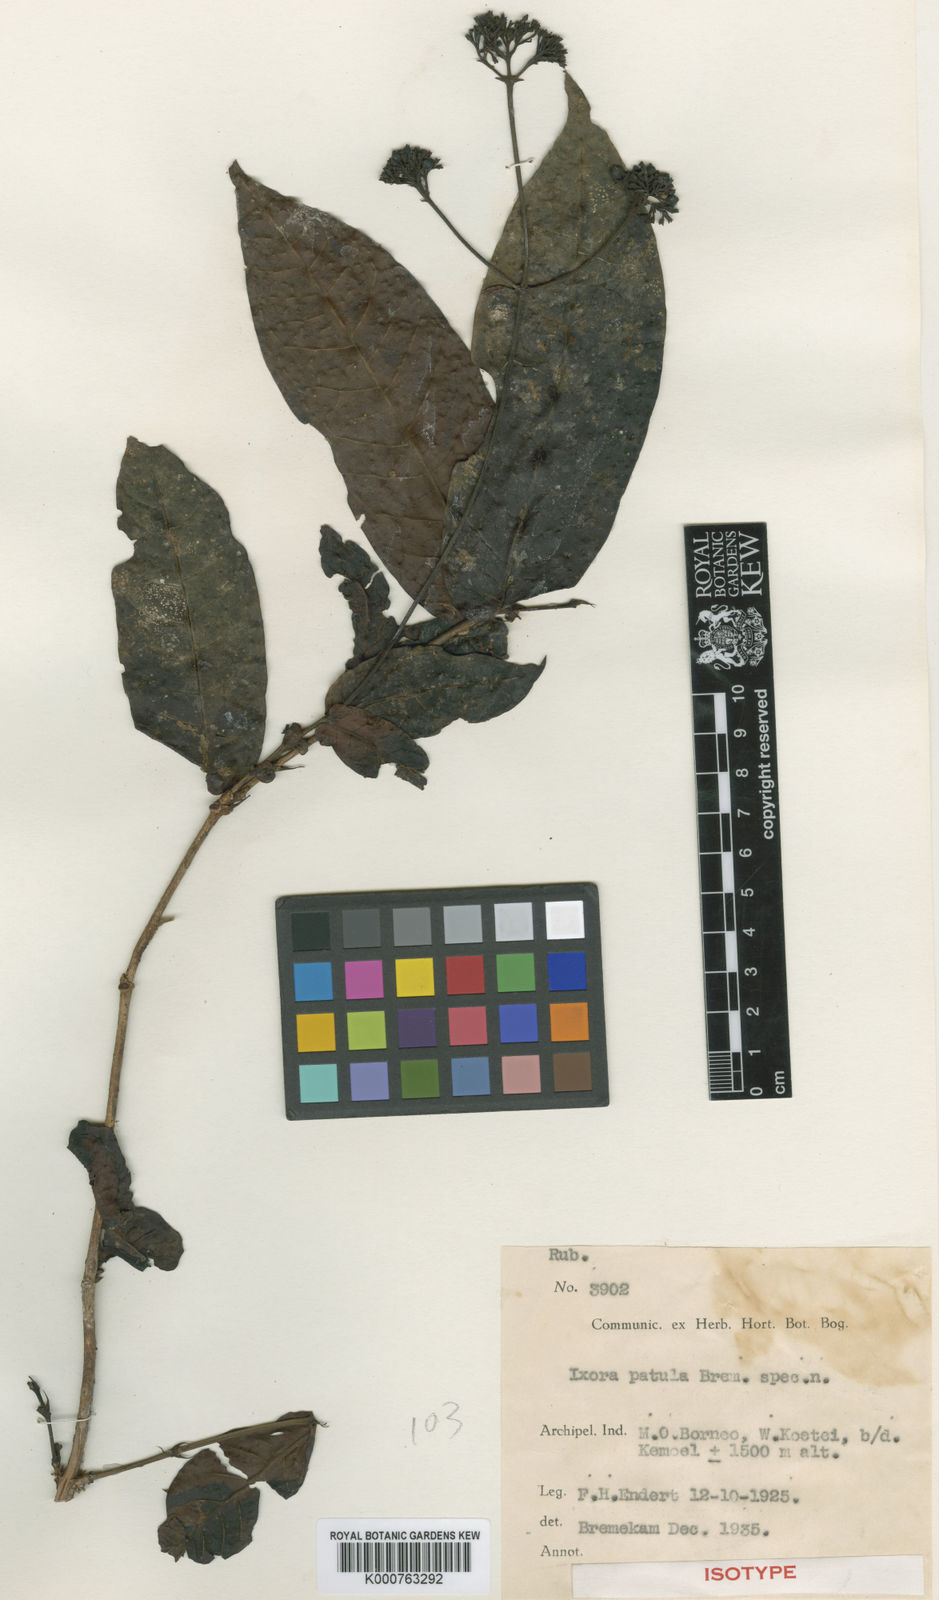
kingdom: Plantae
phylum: Tracheophyta
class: Magnoliopsida
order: Gentianales
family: Rubiaceae
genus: Ixora
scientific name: Ixora patula
